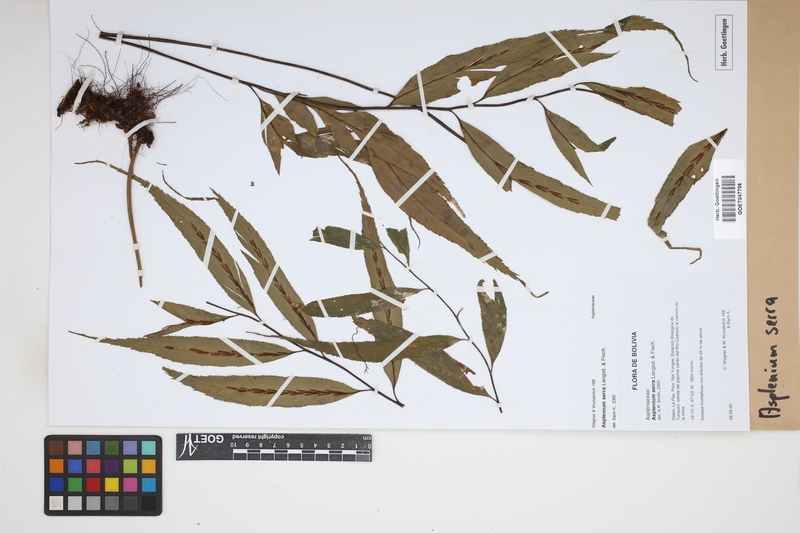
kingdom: Plantae
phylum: Tracheophyta
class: Polypodiopsida
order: Polypodiales
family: Aspleniaceae
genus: Asplenium
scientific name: Asplenium serra
